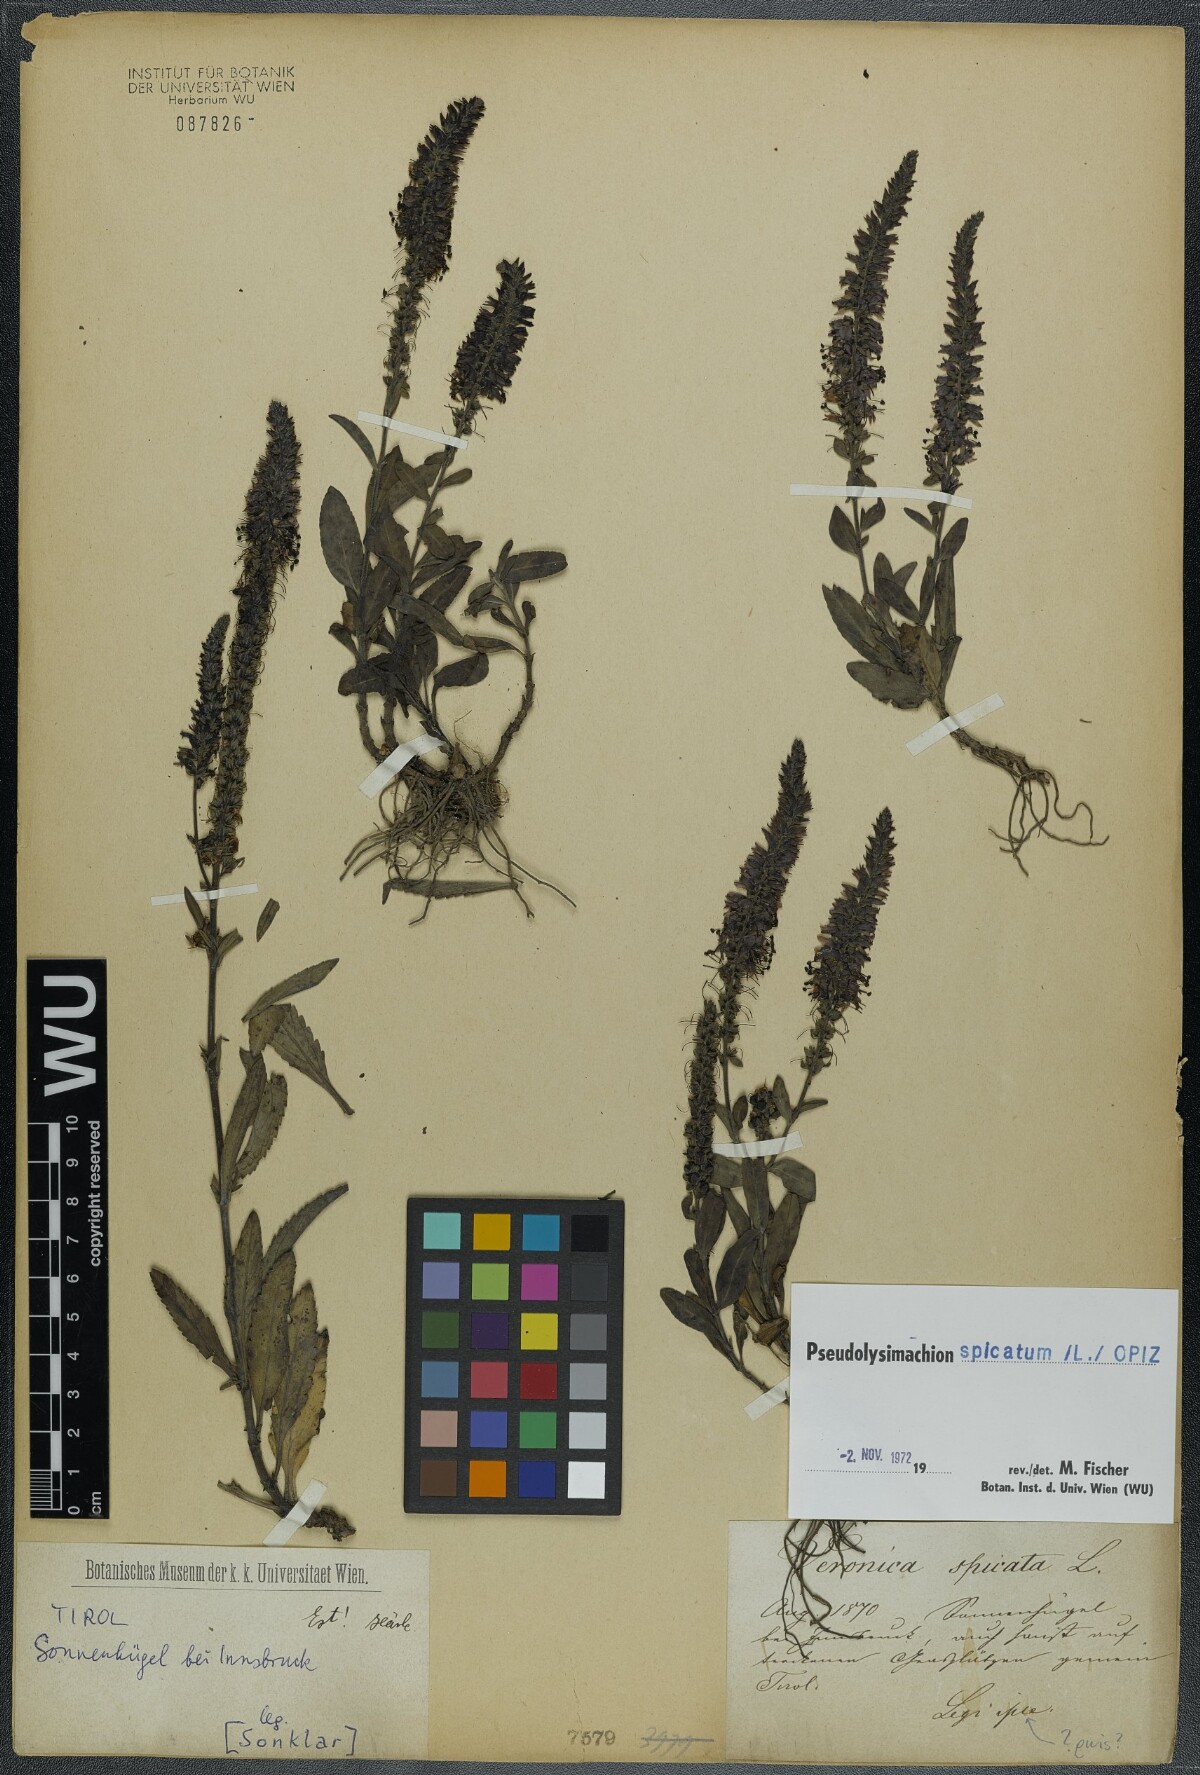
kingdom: Plantae
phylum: Tracheophyta
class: Magnoliopsida
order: Lamiales
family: Plantaginaceae
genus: Veronica
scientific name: Veronica spicata
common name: Spiked speedwell
